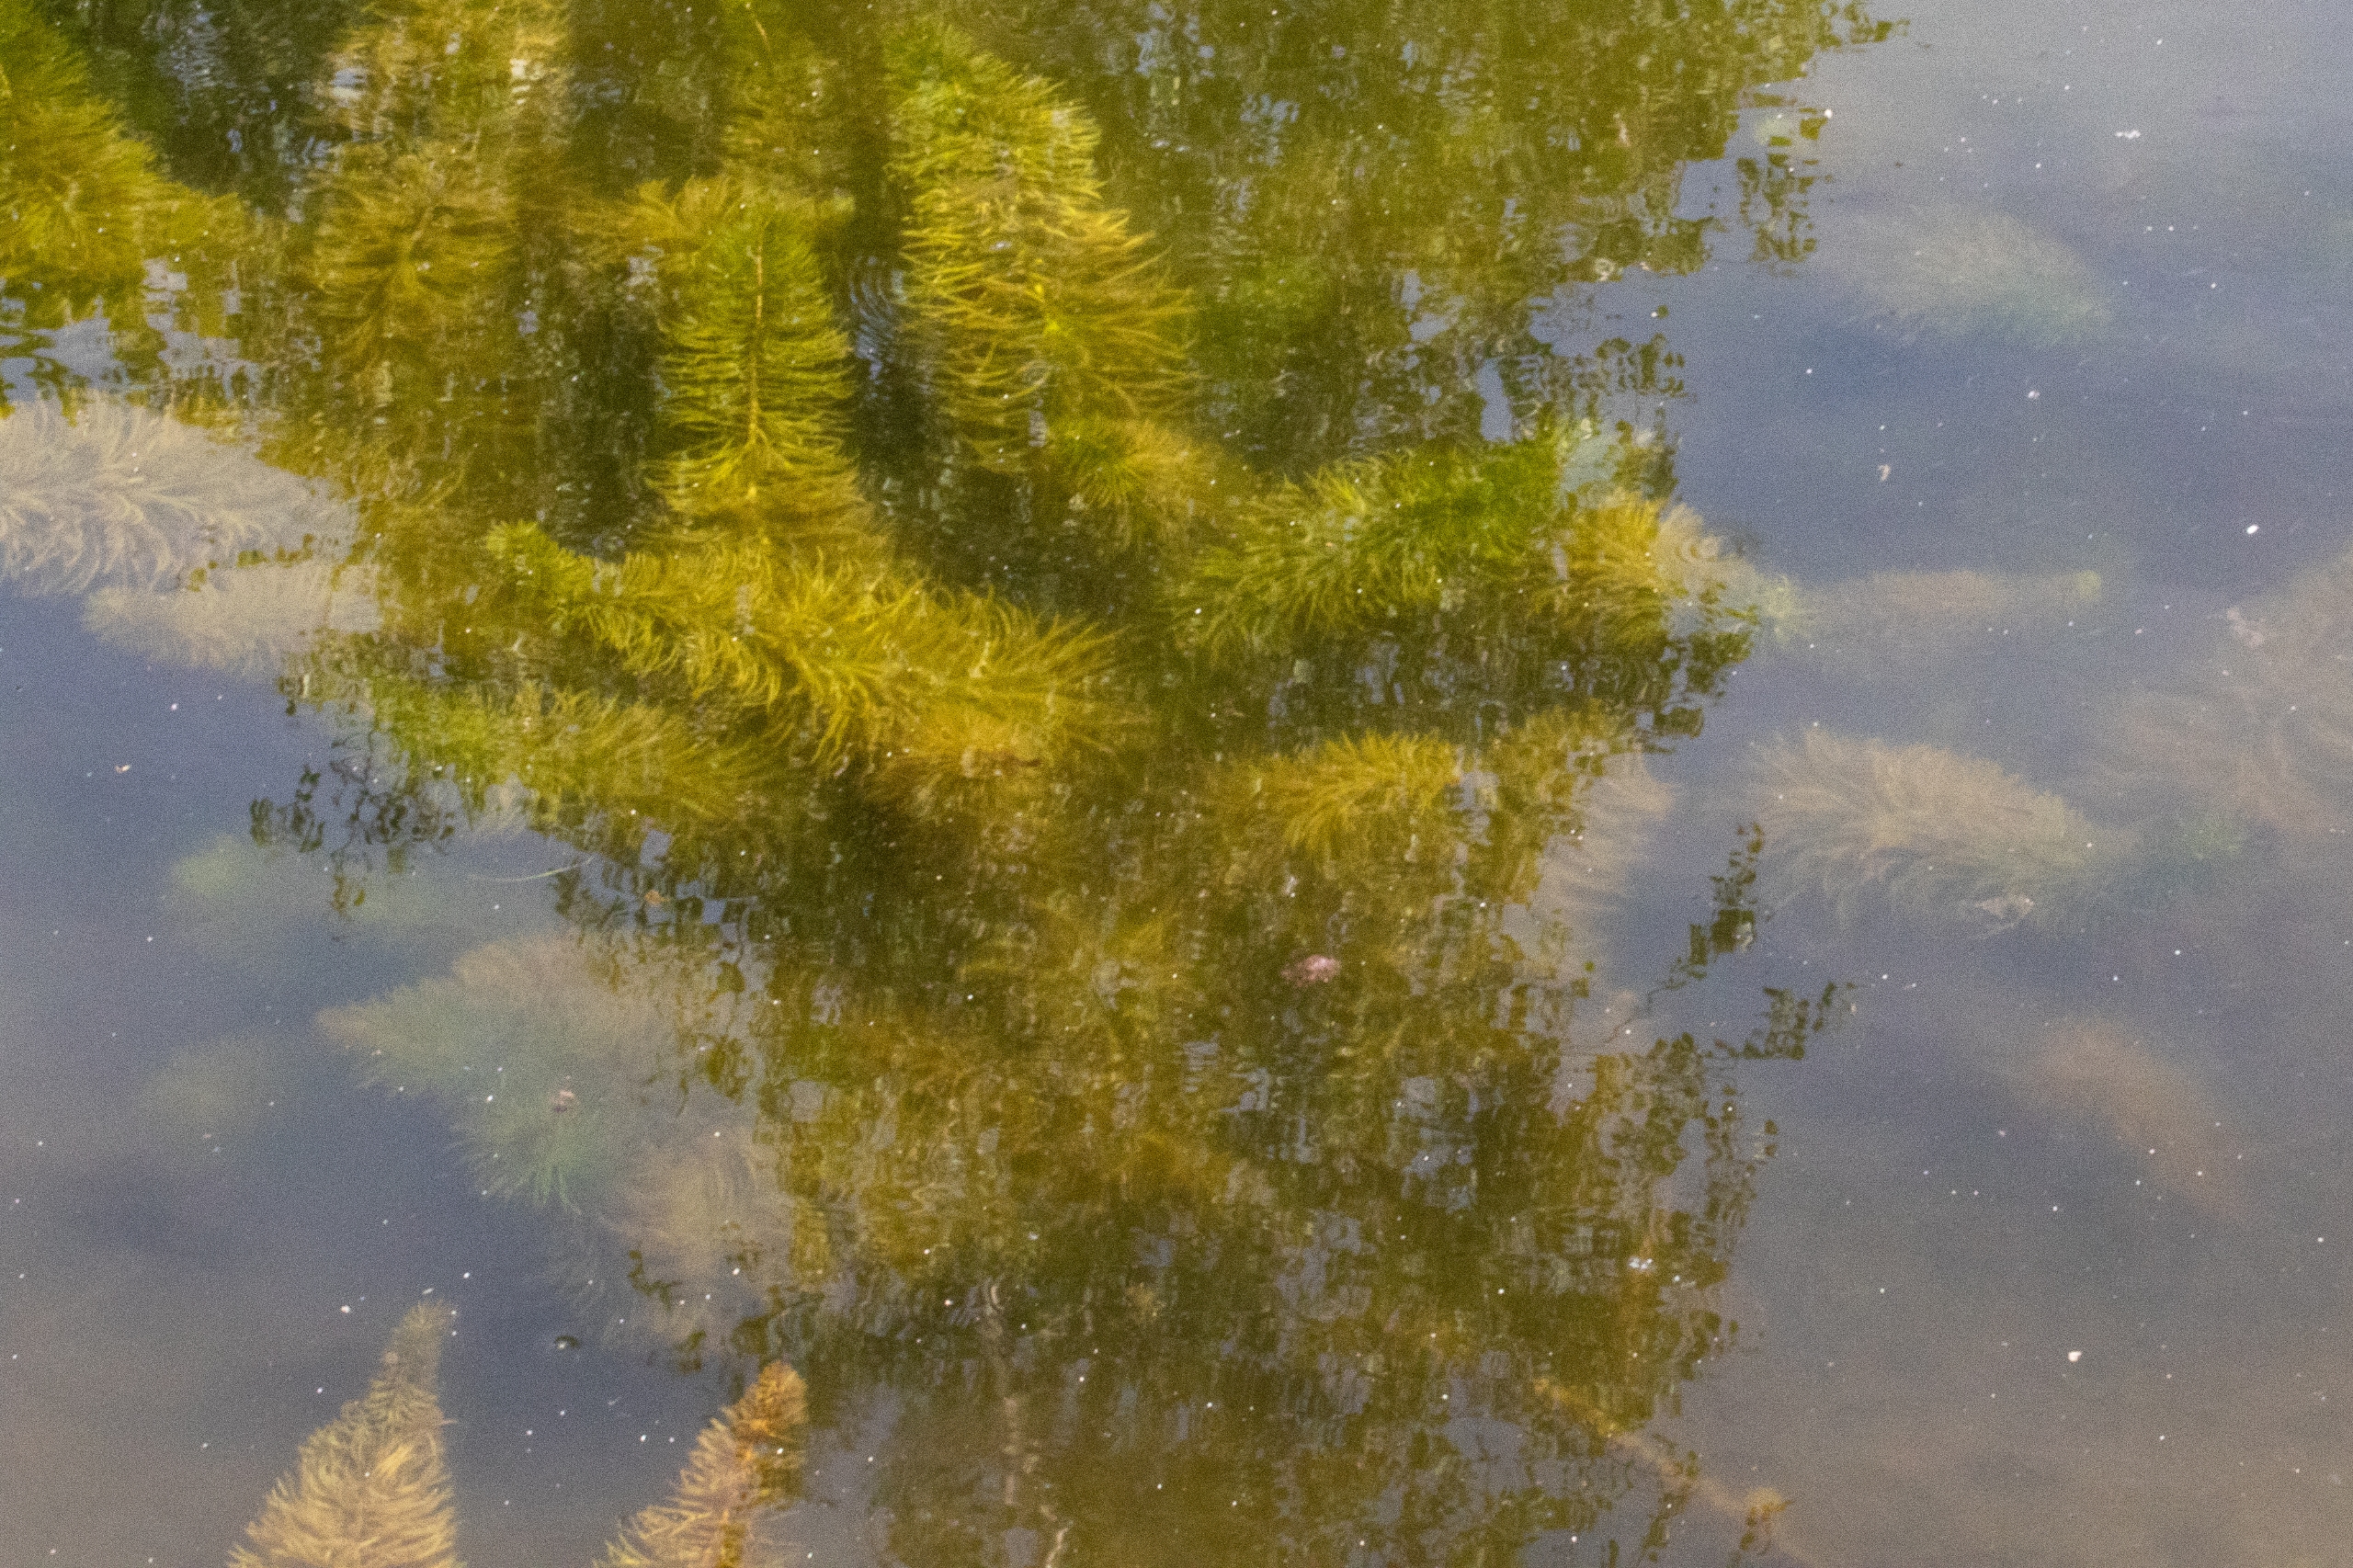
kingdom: Plantae
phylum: Tracheophyta
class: Magnoliopsida
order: Lamiales
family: Plantaginaceae
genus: Hippuris
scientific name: Hippuris vulgaris
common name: Vandspir
